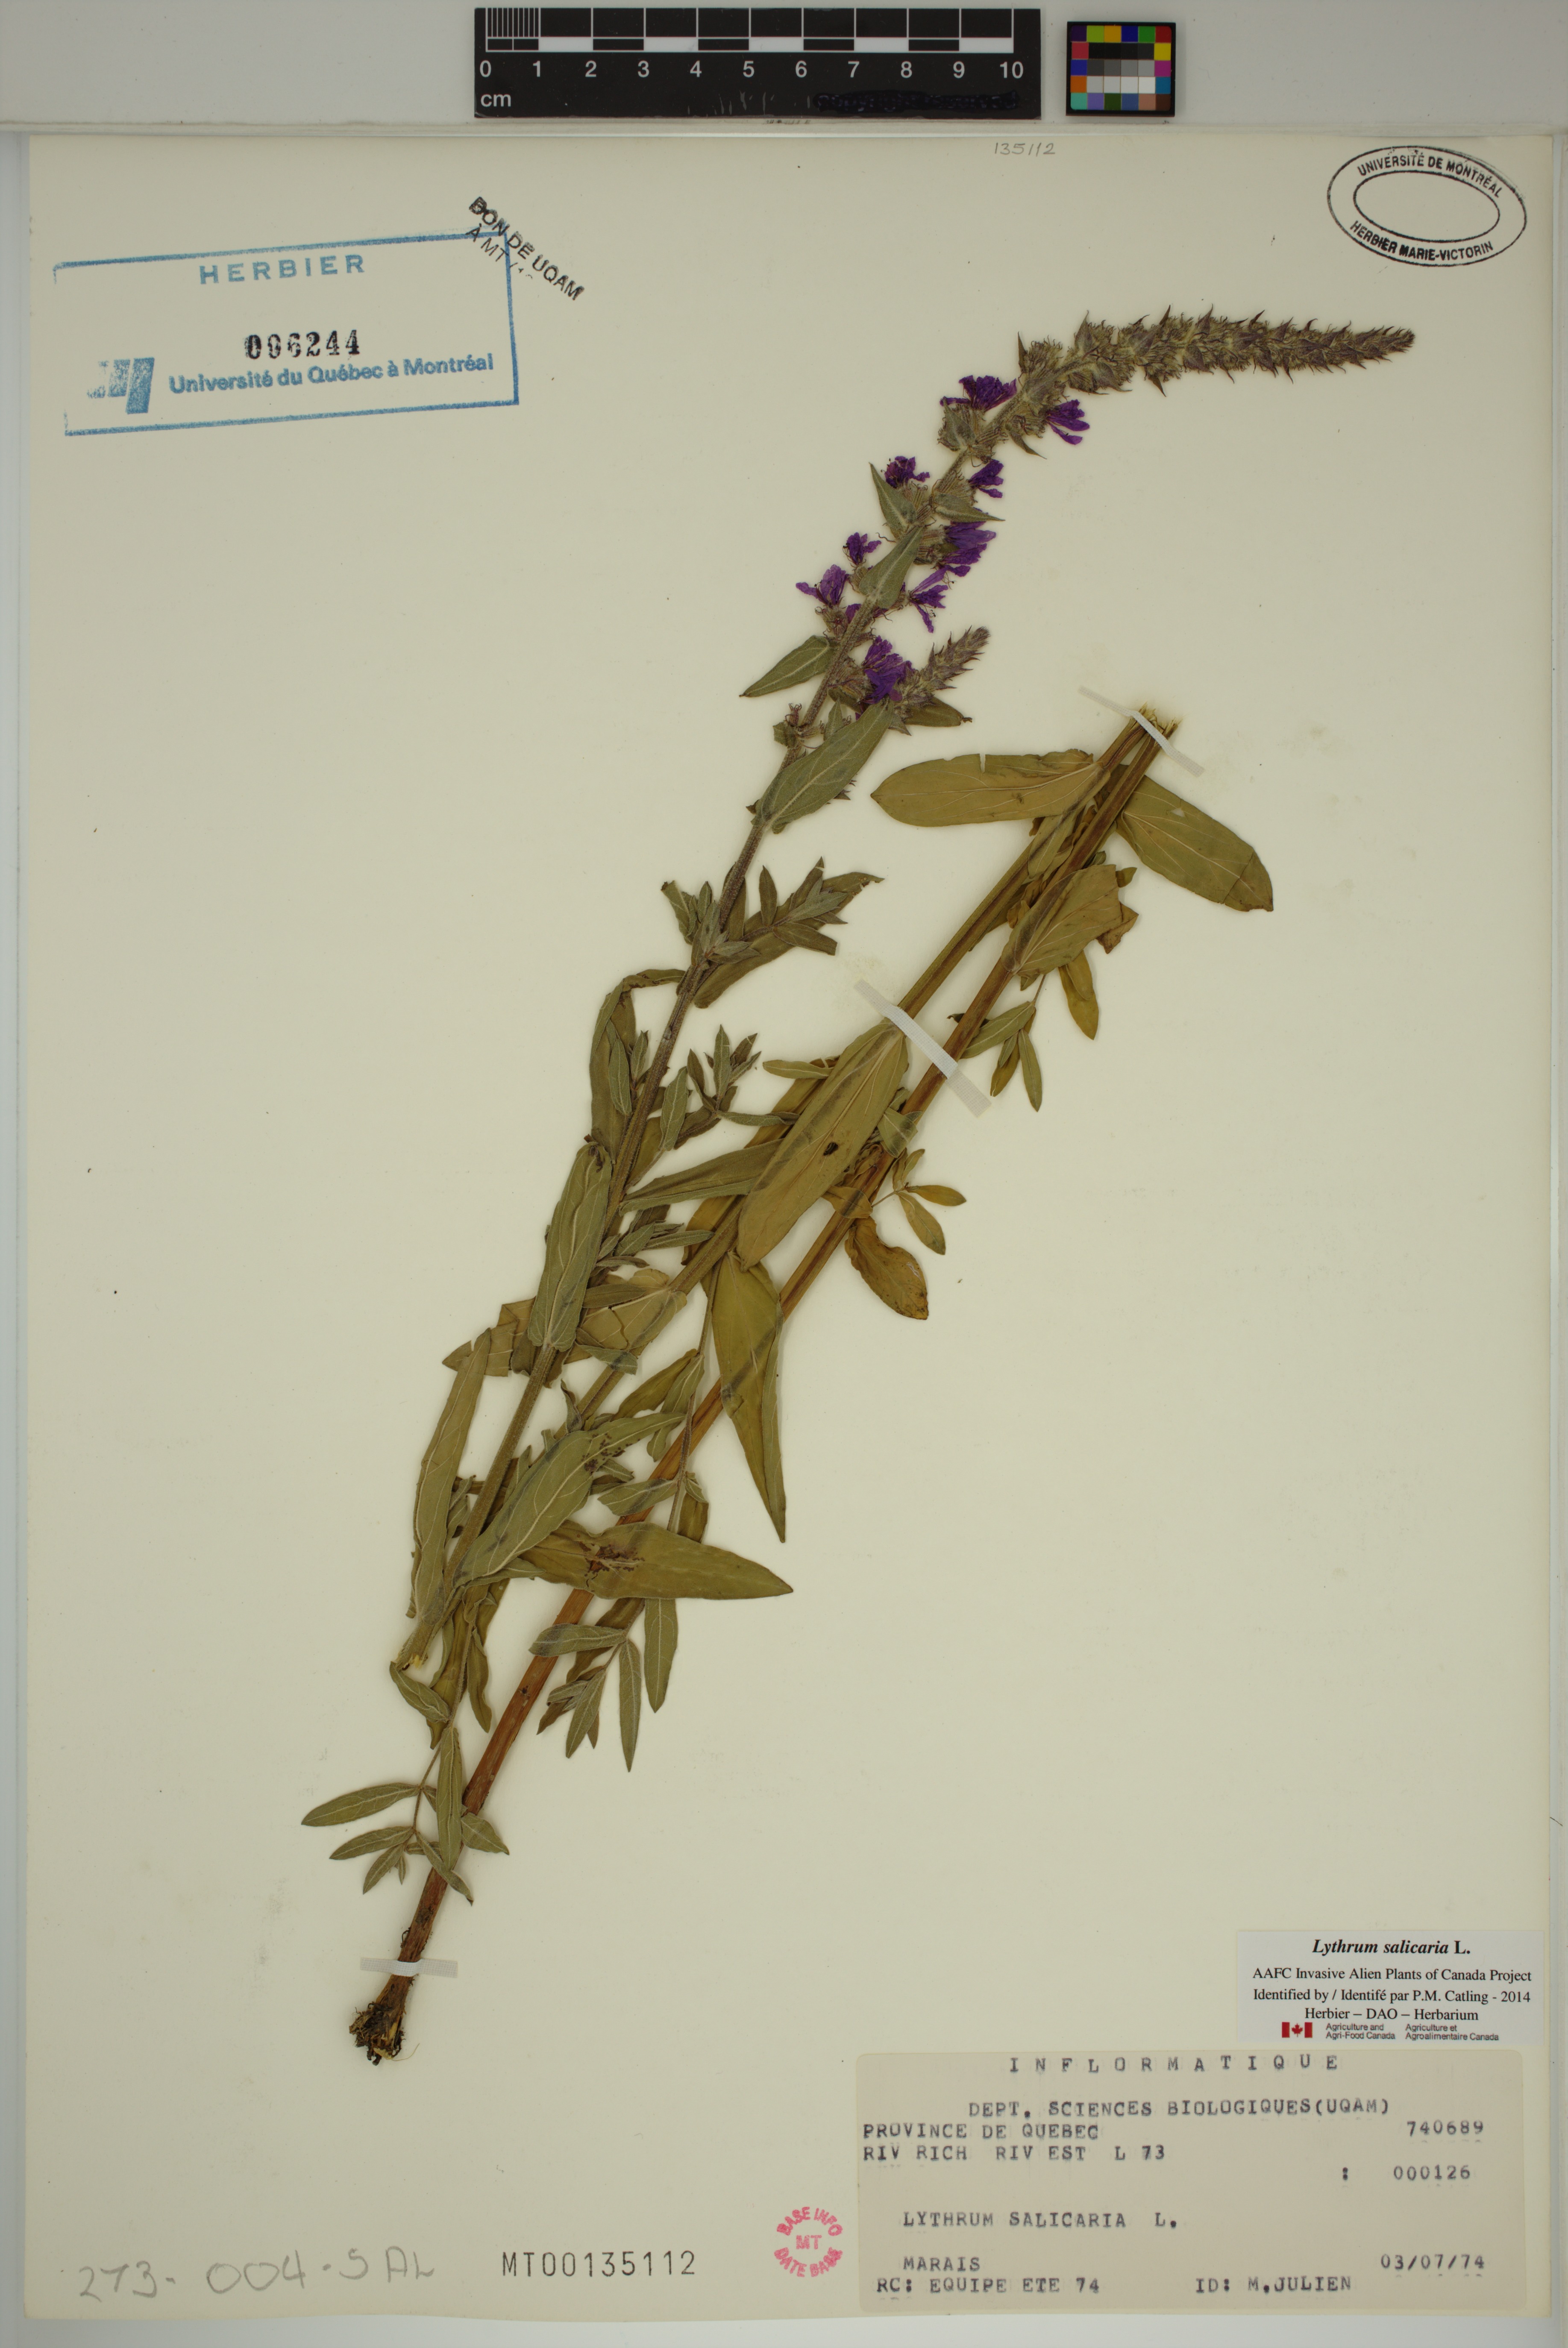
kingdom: Plantae
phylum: Tracheophyta
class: Magnoliopsida
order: Myrtales
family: Lythraceae
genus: Lythrum
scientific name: Lythrum salicaria
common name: Purple loosestrife
